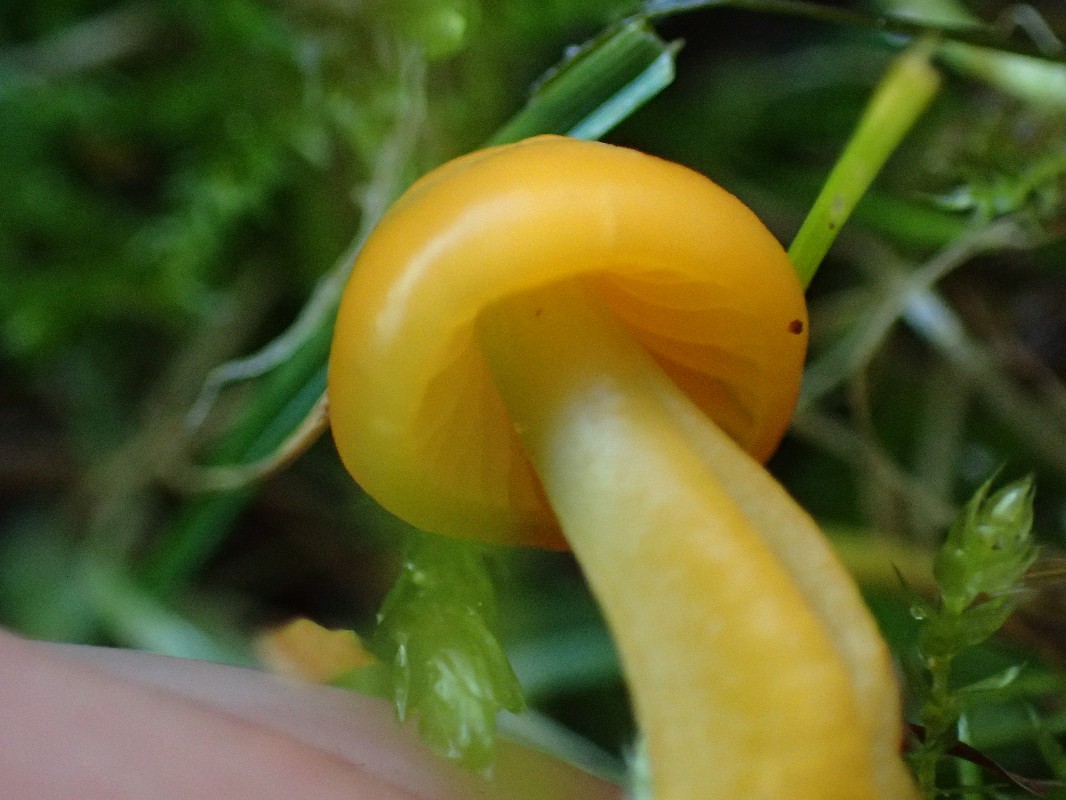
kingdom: Fungi
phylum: Basidiomycota
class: Agaricomycetes
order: Agaricales
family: Hygrophoraceae
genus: Gliophorus
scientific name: Gliophorus psittacinus
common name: papegøje-vokshat
